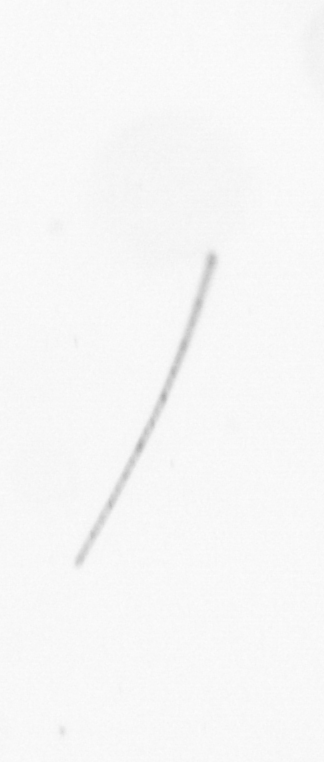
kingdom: Chromista
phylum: Ochrophyta
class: Bacillariophyceae
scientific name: Bacillariophyceae
